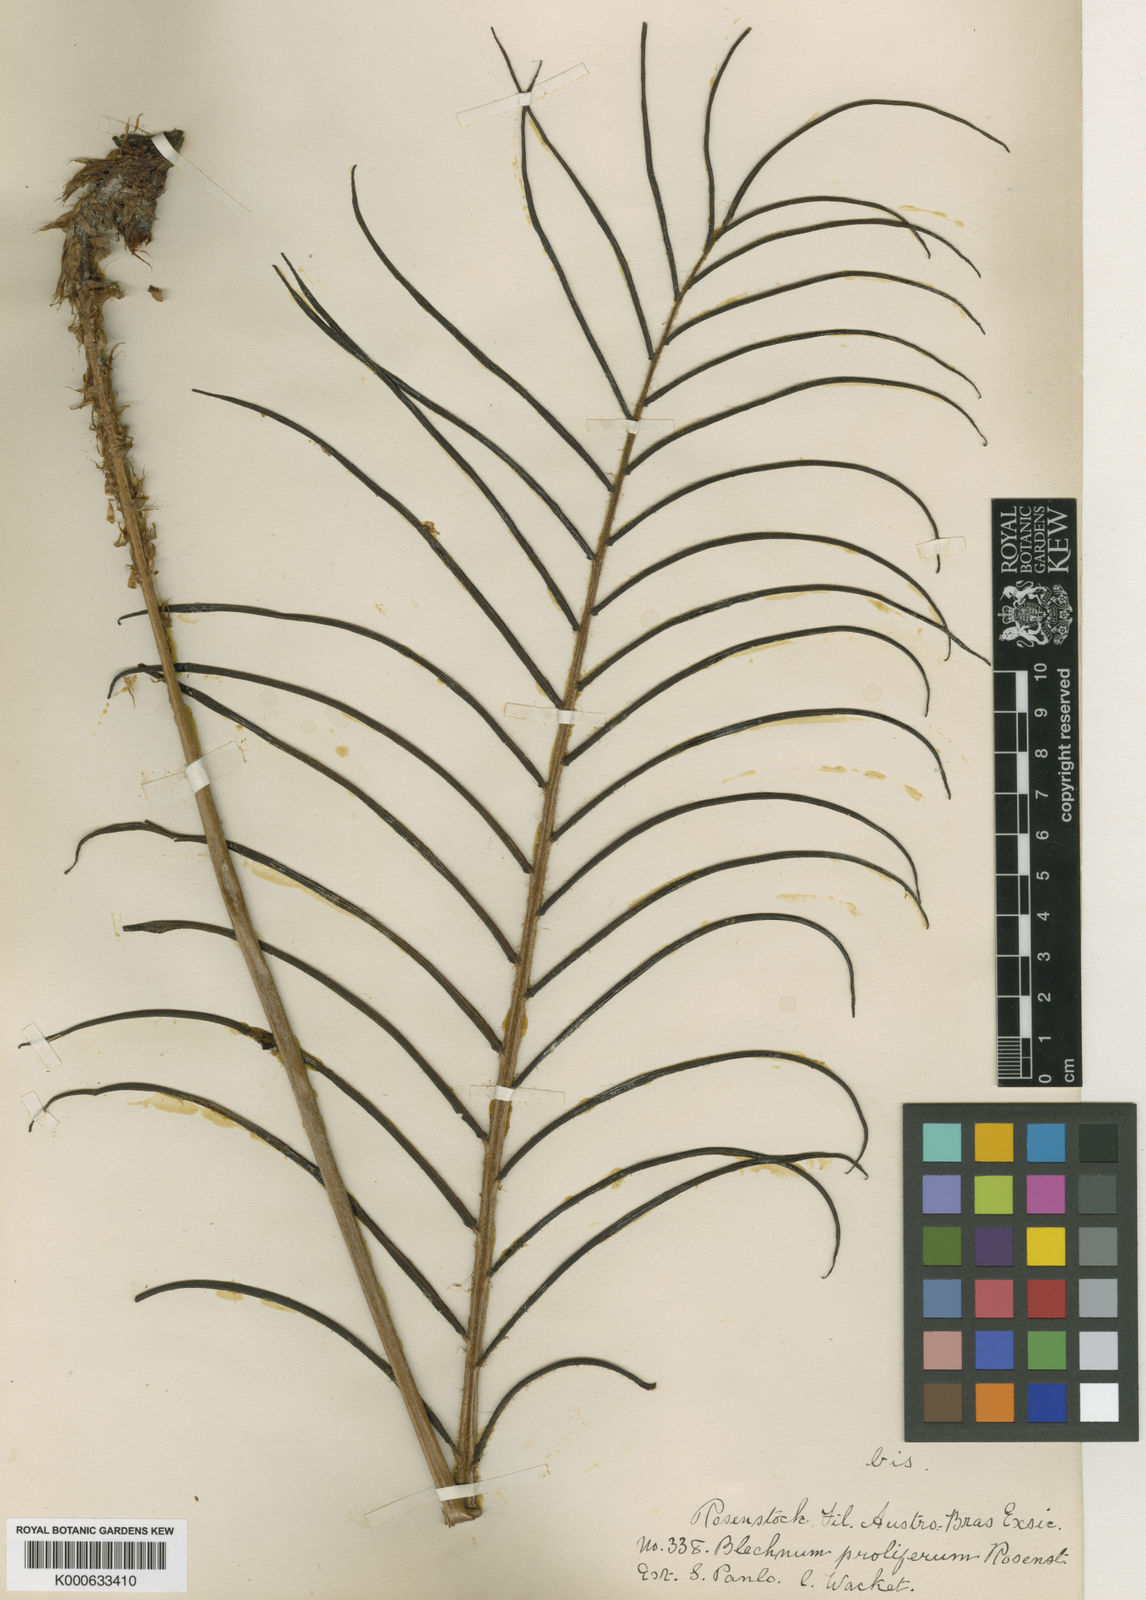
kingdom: Plantae
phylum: Tracheophyta
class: Polypodiopsida
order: Polypodiales
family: Blechnaceae
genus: Parablechnum
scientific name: Parablechnum proliferum
